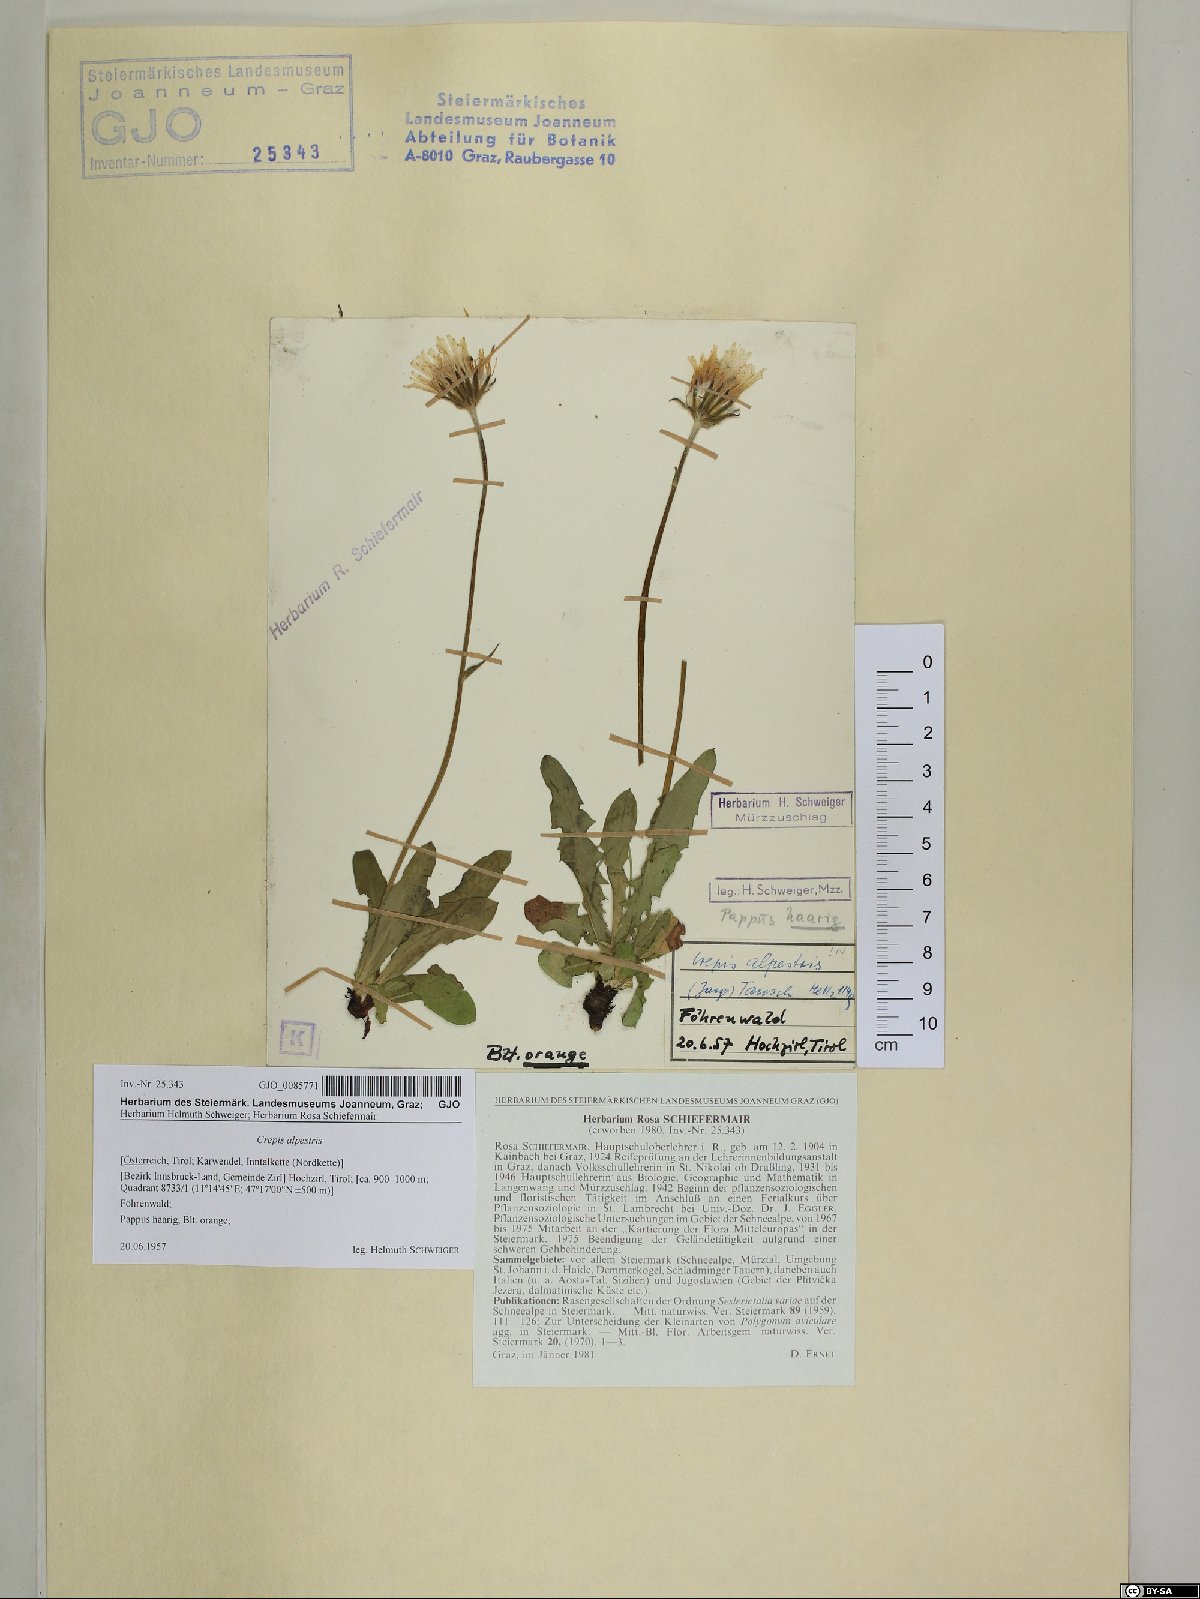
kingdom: Plantae
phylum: Tracheophyta
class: Magnoliopsida
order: Asterales
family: Asteraceae
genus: Crepis
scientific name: Crepis alpestris
